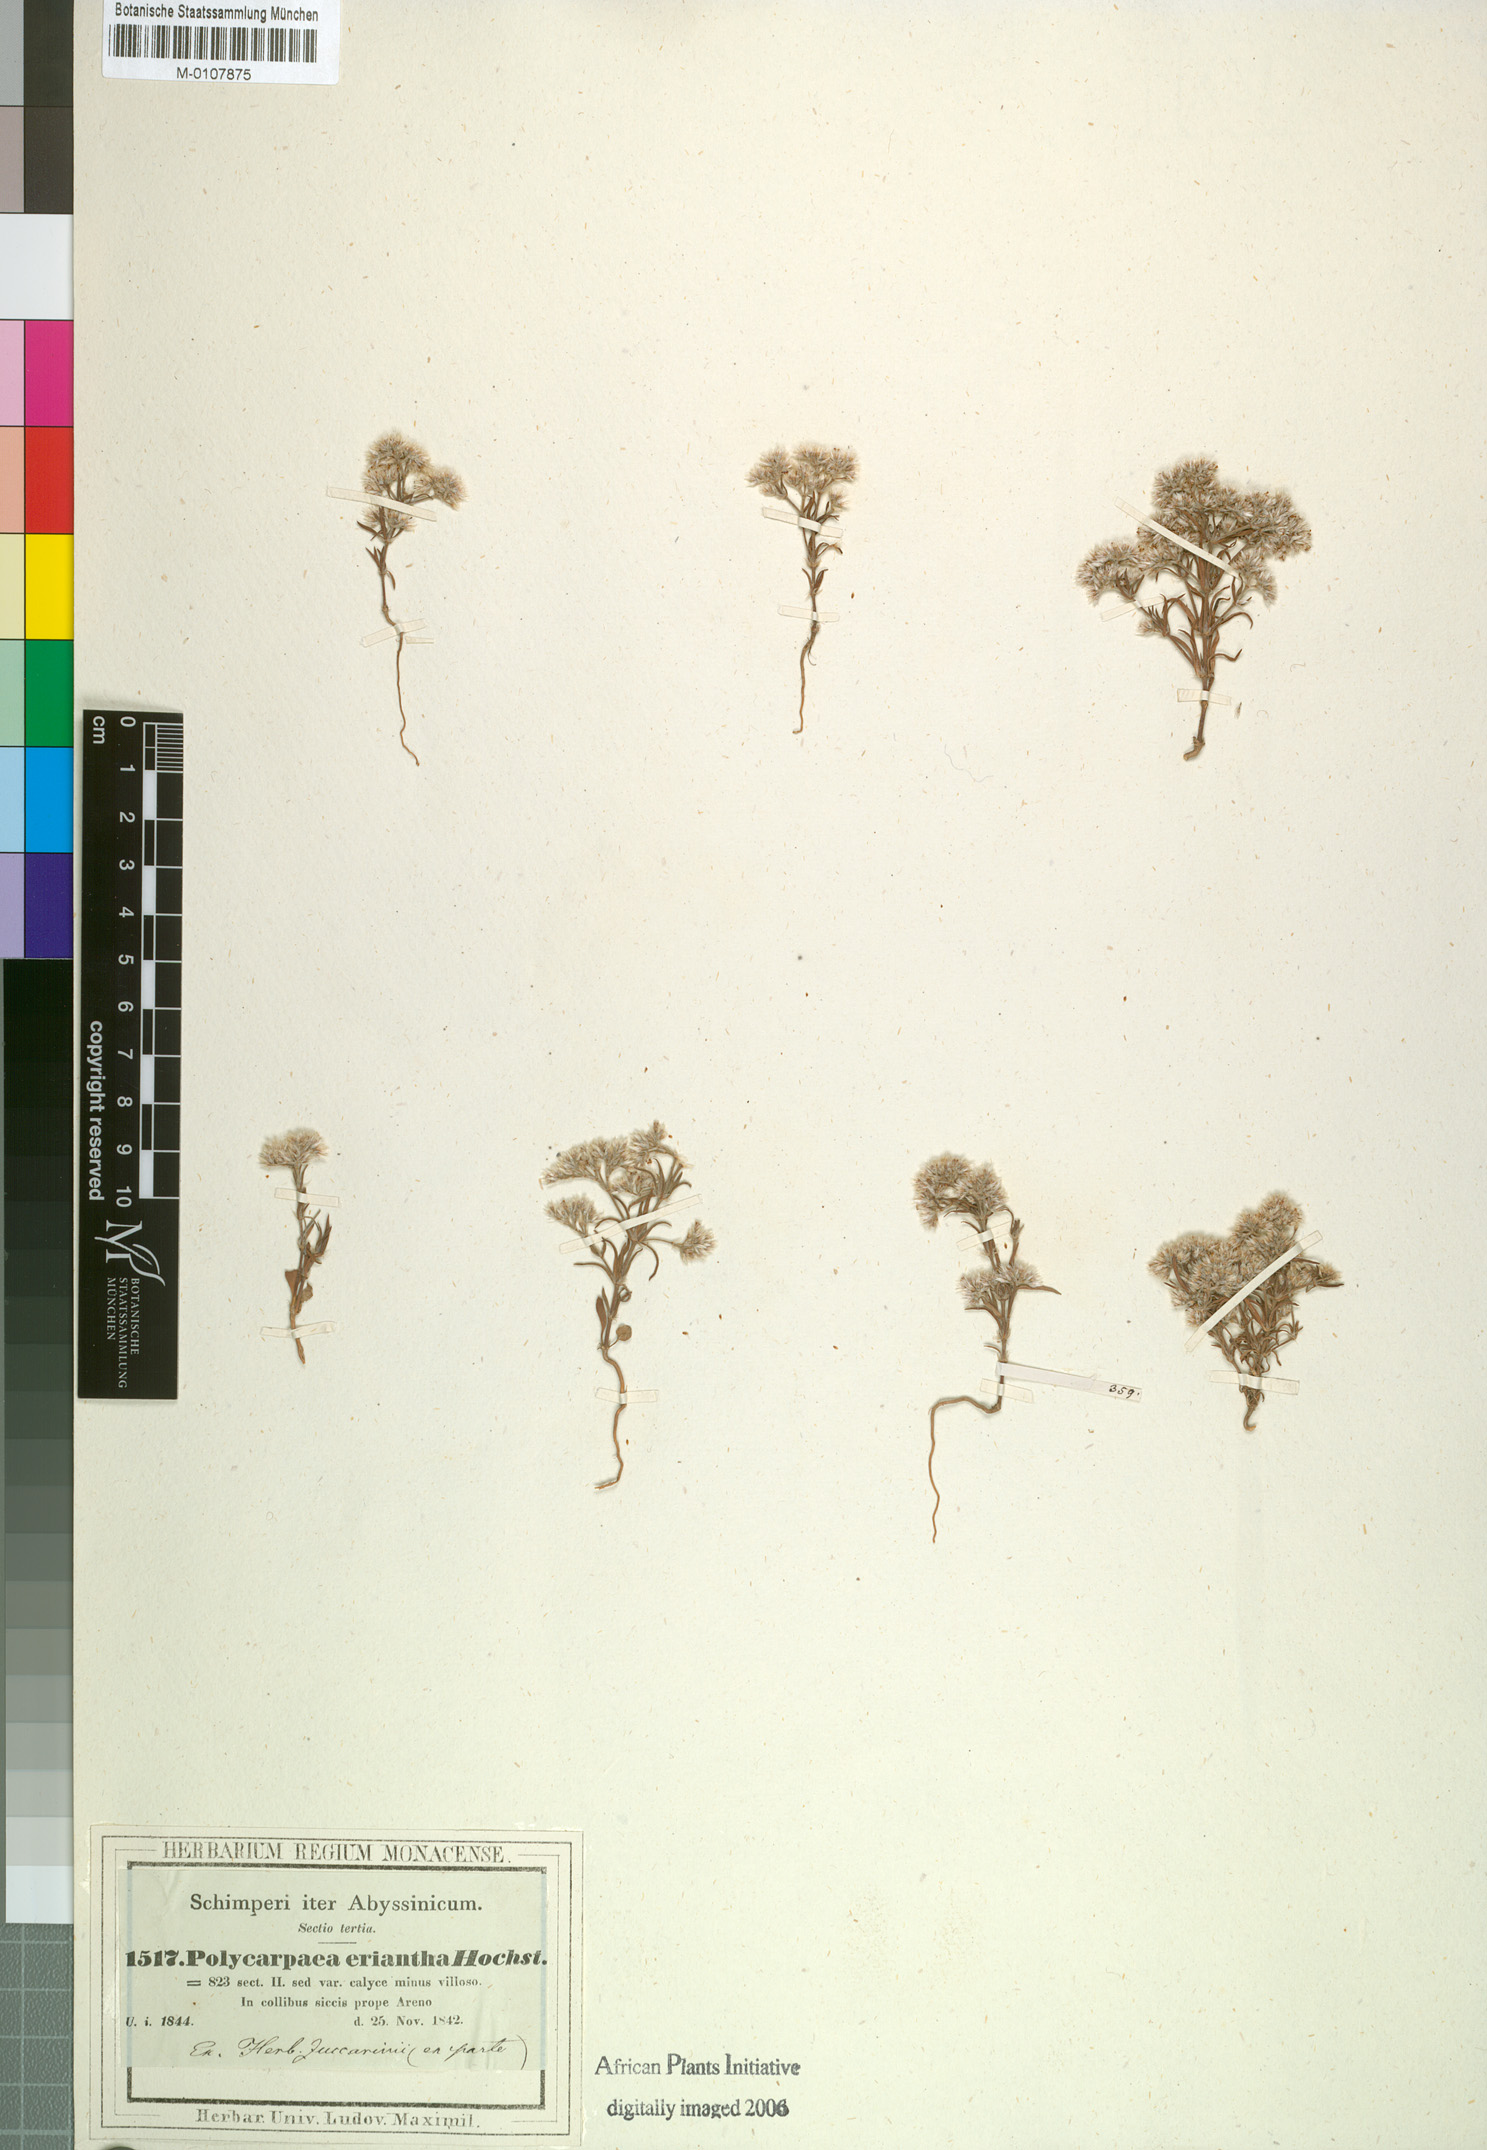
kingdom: Plantae
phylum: Tracheophyta
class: Magnoliopsida
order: Caryophyllales
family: Caryophyllaceae
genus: Polycarpaea
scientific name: Polycarpaea eriantha
